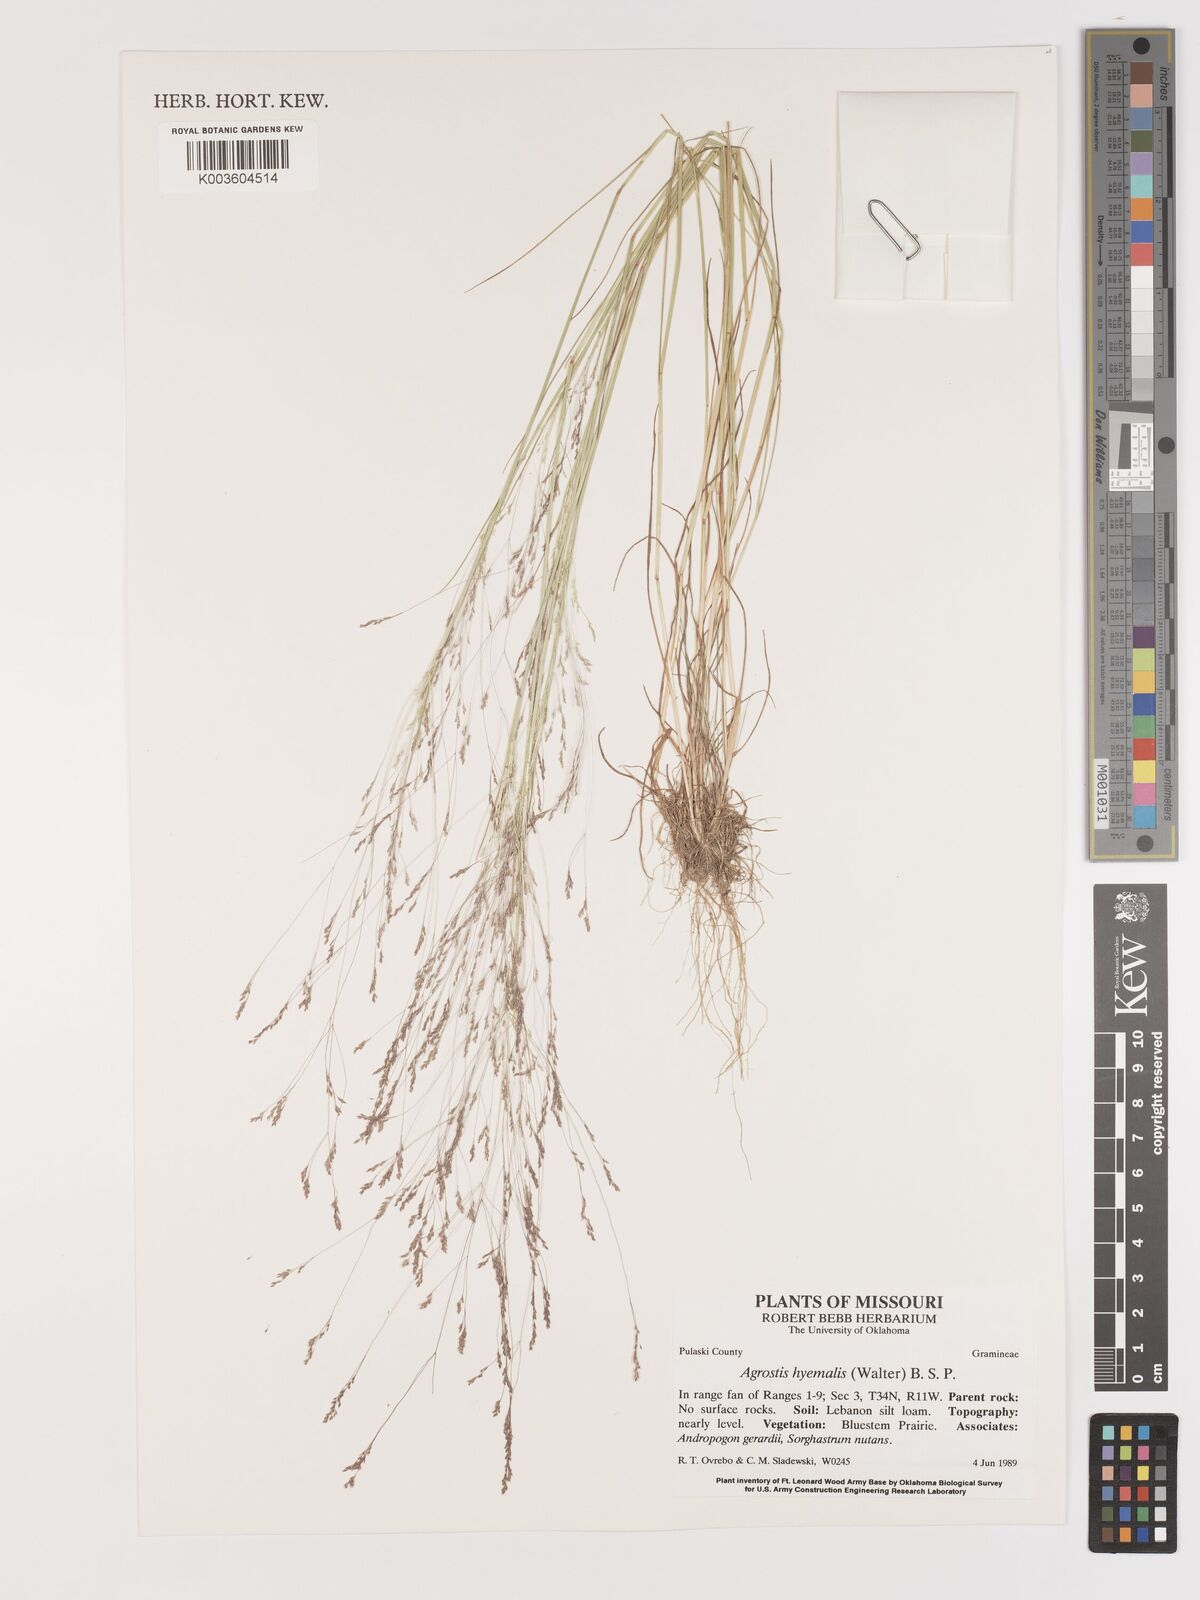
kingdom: Plantae
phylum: Tracheophyta
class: Liliopsida
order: Poales
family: Poaceae
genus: Agrostis
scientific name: Agrostis hyemalis
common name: Small bent
